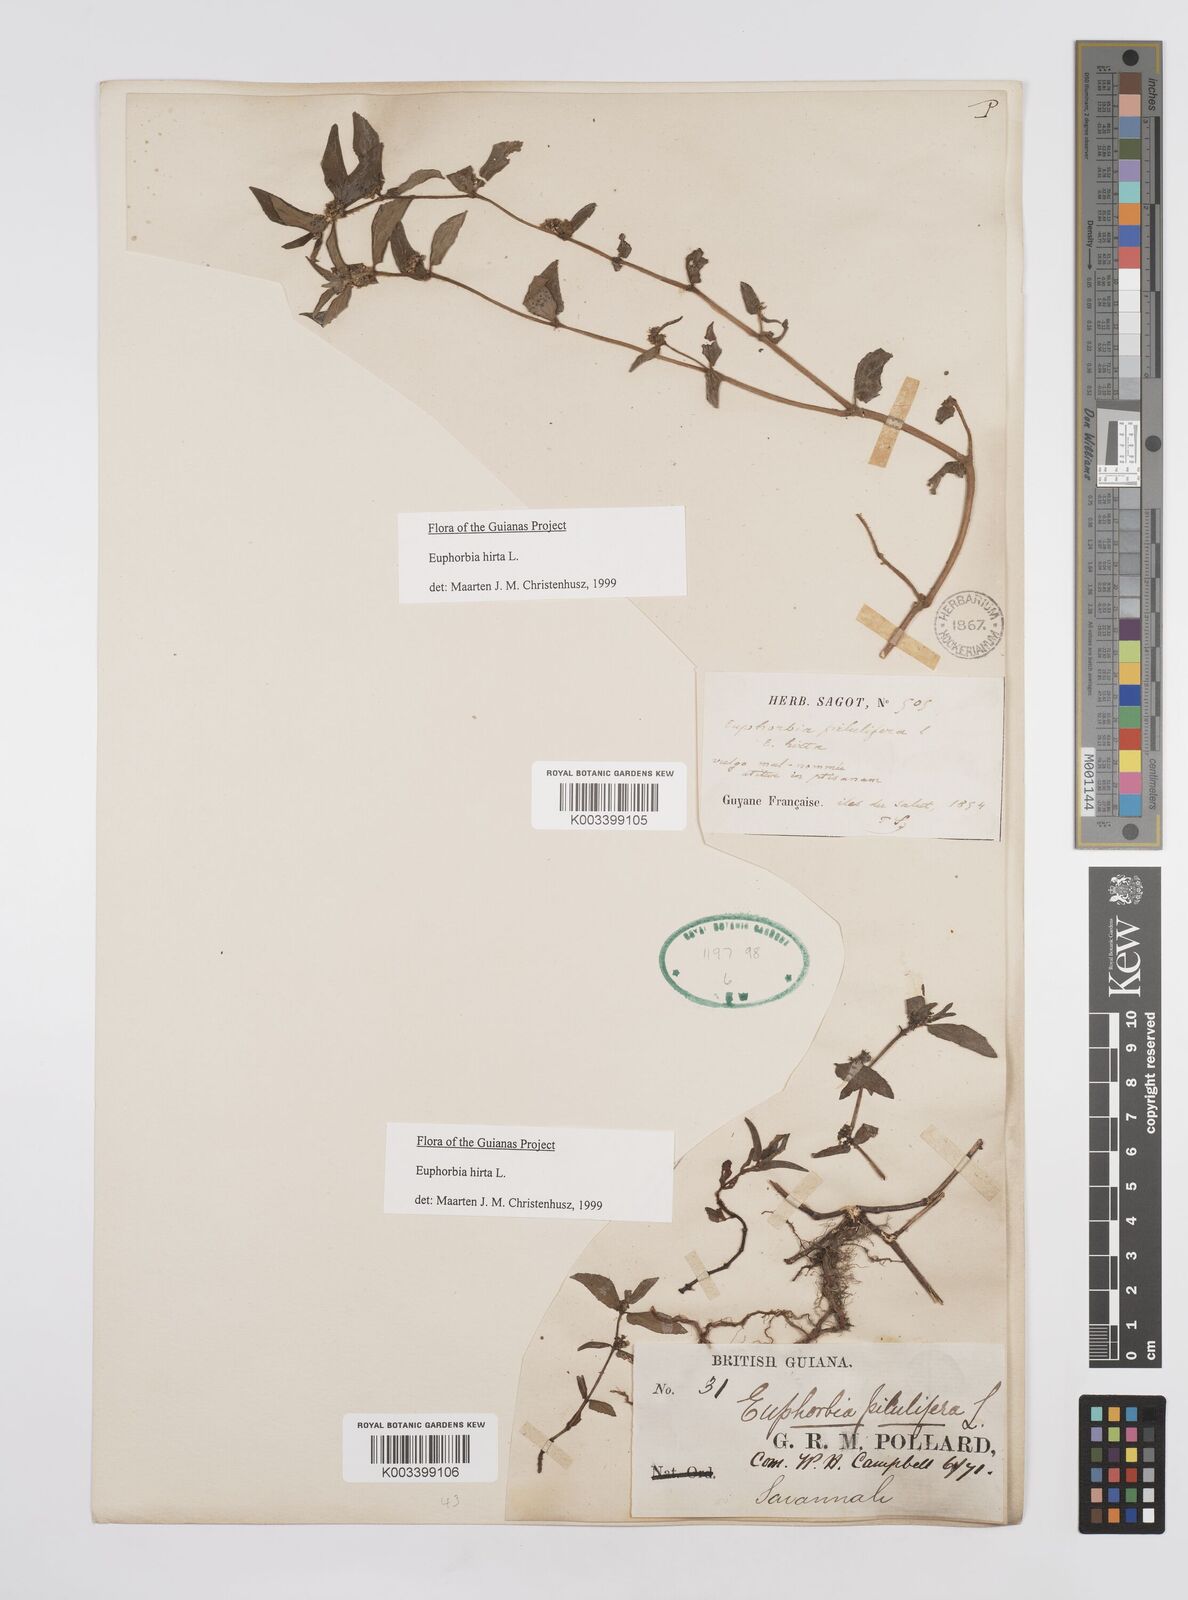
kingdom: Plantae
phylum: Tracheophyta
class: Magnoliopsida
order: Malpighiales
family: Euphorbiaceae
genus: Euphorbia
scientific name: Euphorbia hirta
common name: Pillpod sandmat
